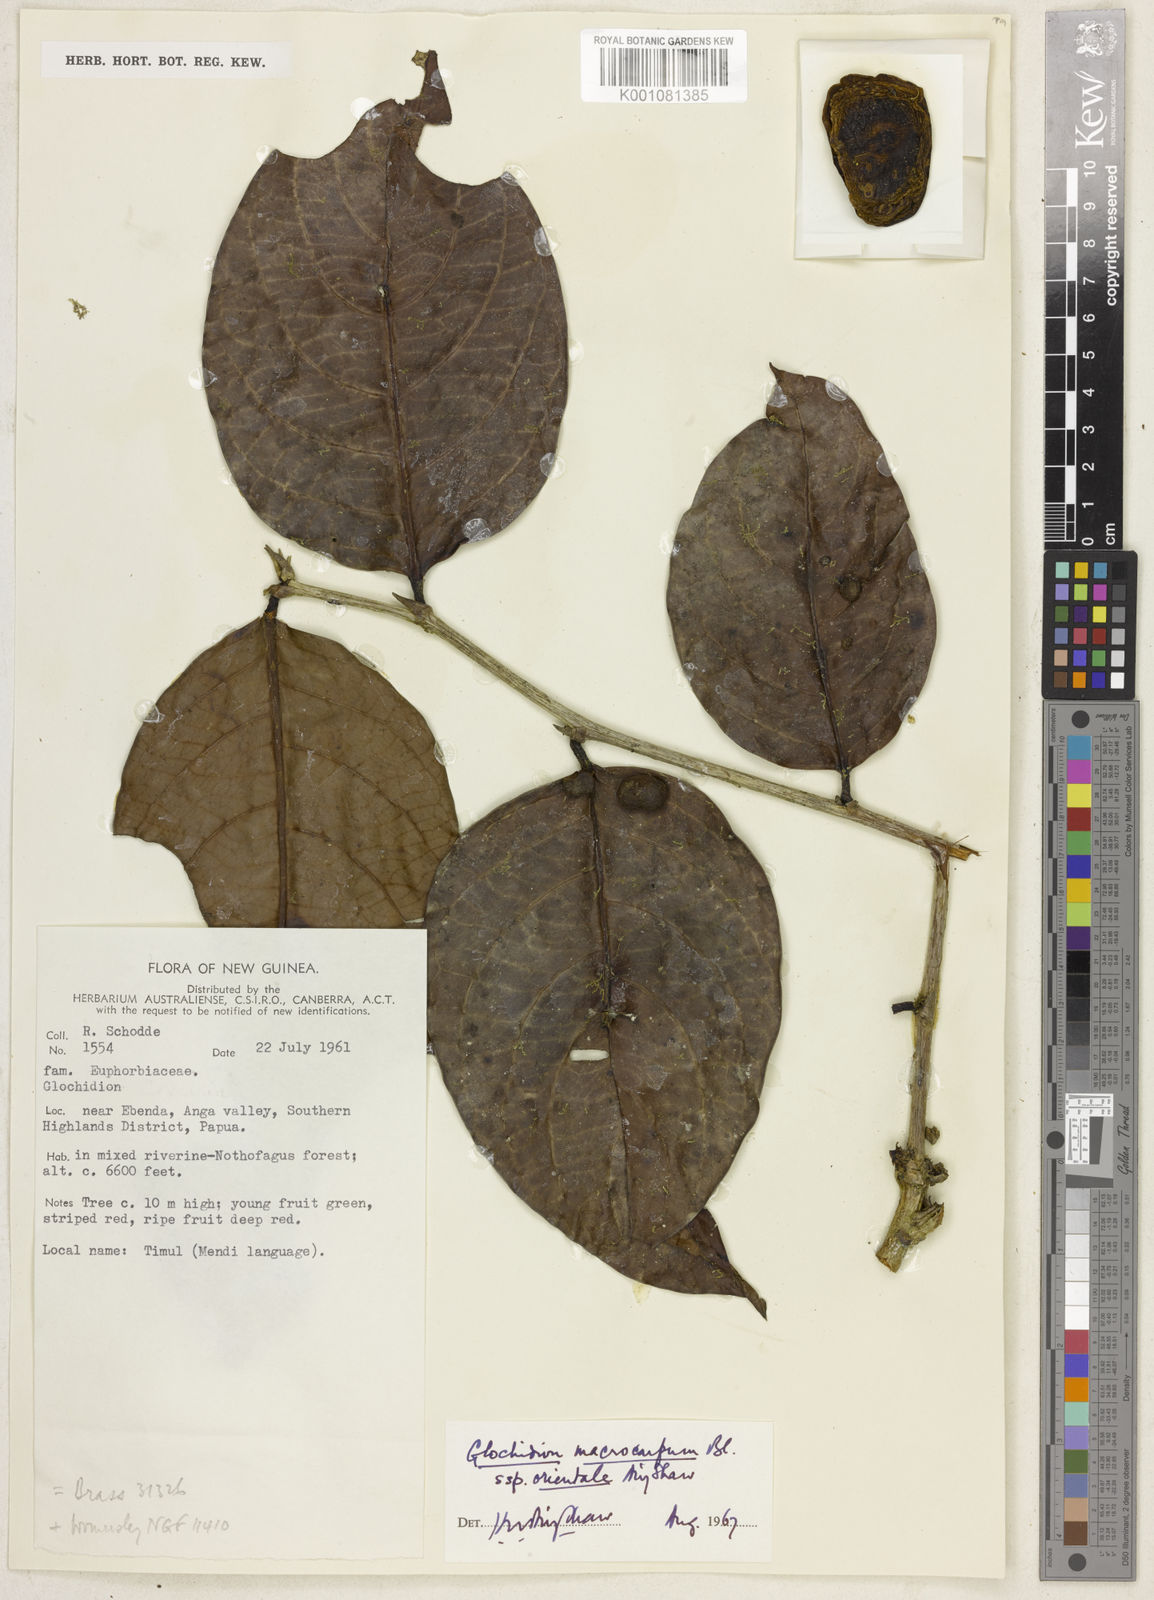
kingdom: Plantae
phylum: Tracheophyta
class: Magnoliopsida
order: Malpighiales
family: Phyllanthaceae
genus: Glochidion
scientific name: Glochidion macrocarpum
